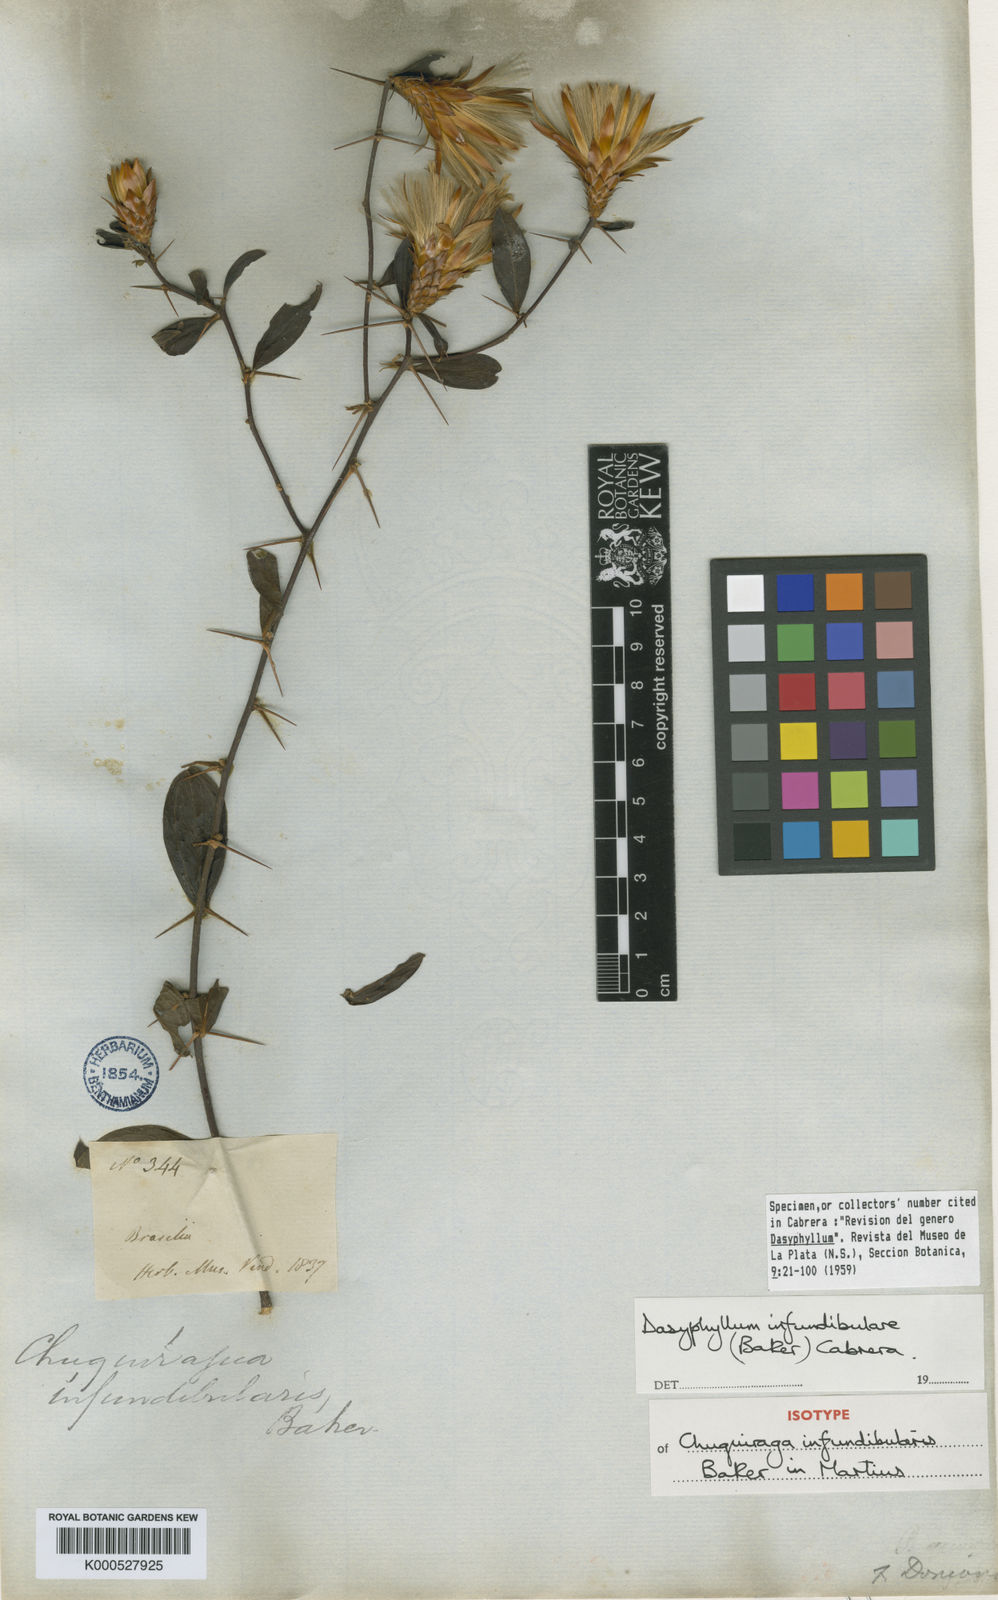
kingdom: Plantae
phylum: Tracheophyta
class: Magnoliopsida
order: Asterales
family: Asteraceae
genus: Dasyphyllum
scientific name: Dasyphyllum donianum
